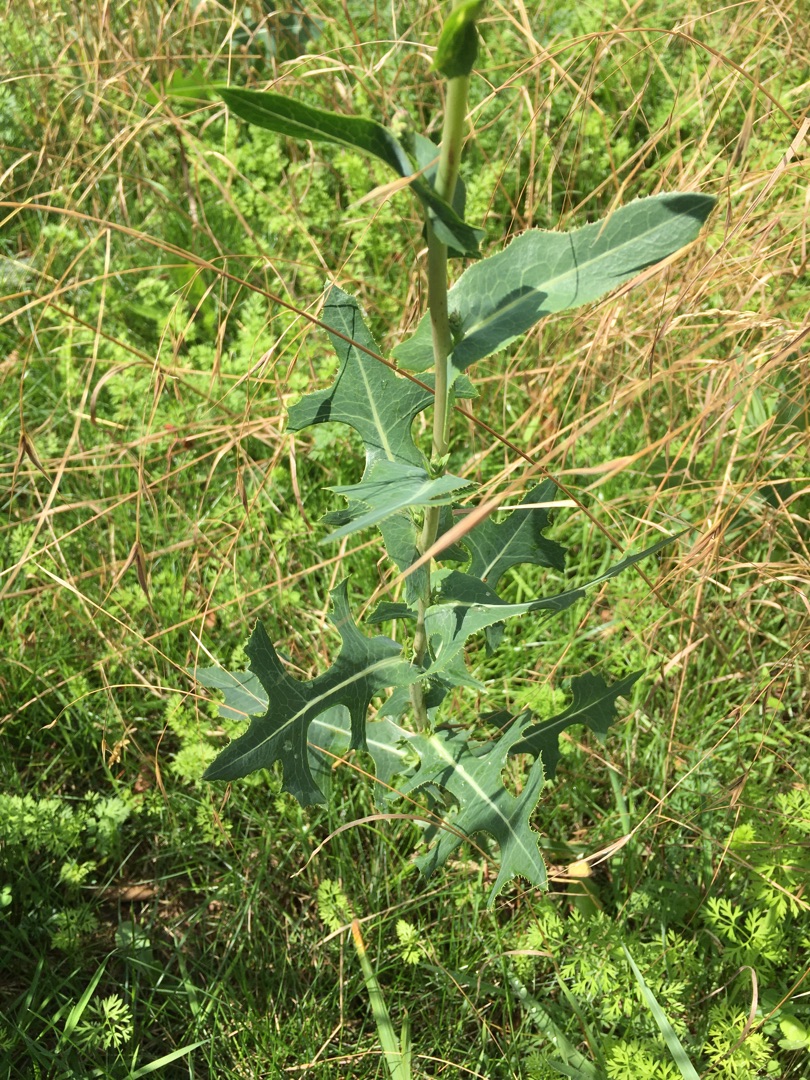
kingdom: Plantae
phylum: Tracheophyta
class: Magnoliopsida
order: Asterales
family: Asteraceae
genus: Lactuca
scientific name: Lactuca serriola
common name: Tornet salat
